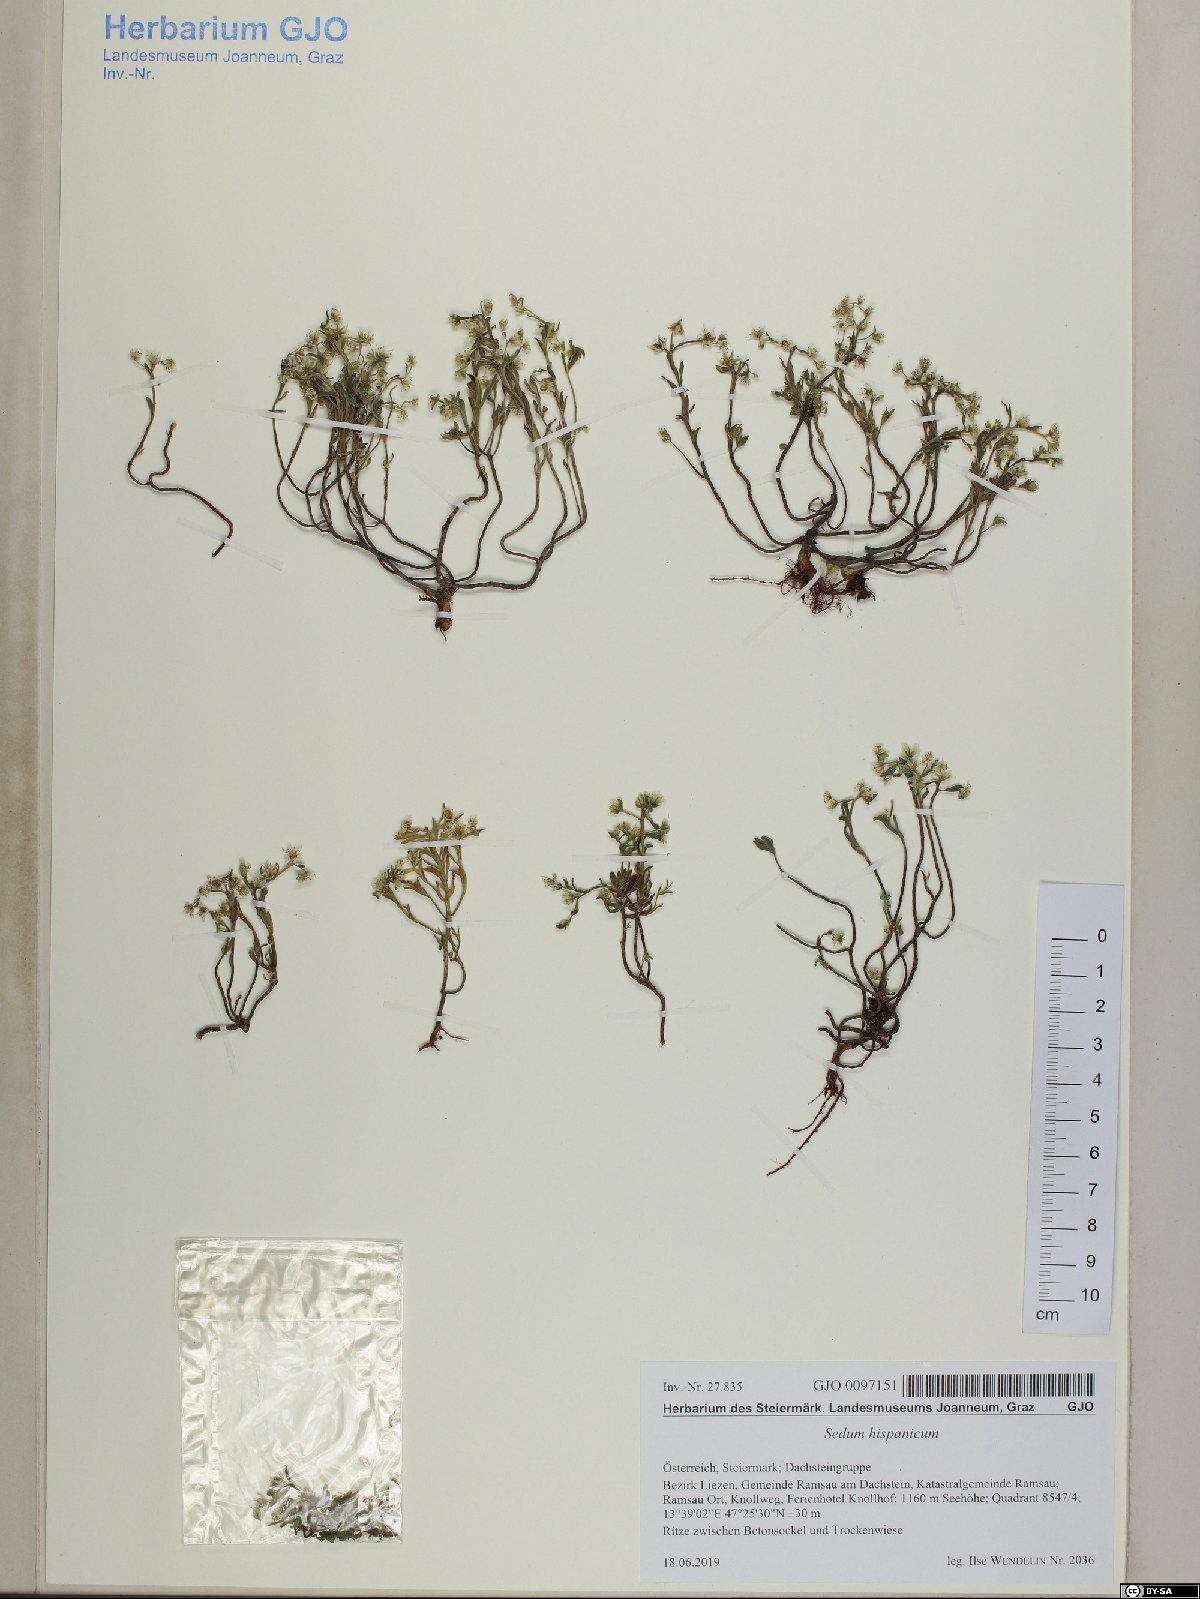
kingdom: Plantae
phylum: Tracheophyta
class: Magnoliopsida
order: Saxifragales
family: Crassulaceae
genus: Sedum
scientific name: Sedum hispanicum
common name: Spanish stonecrop
